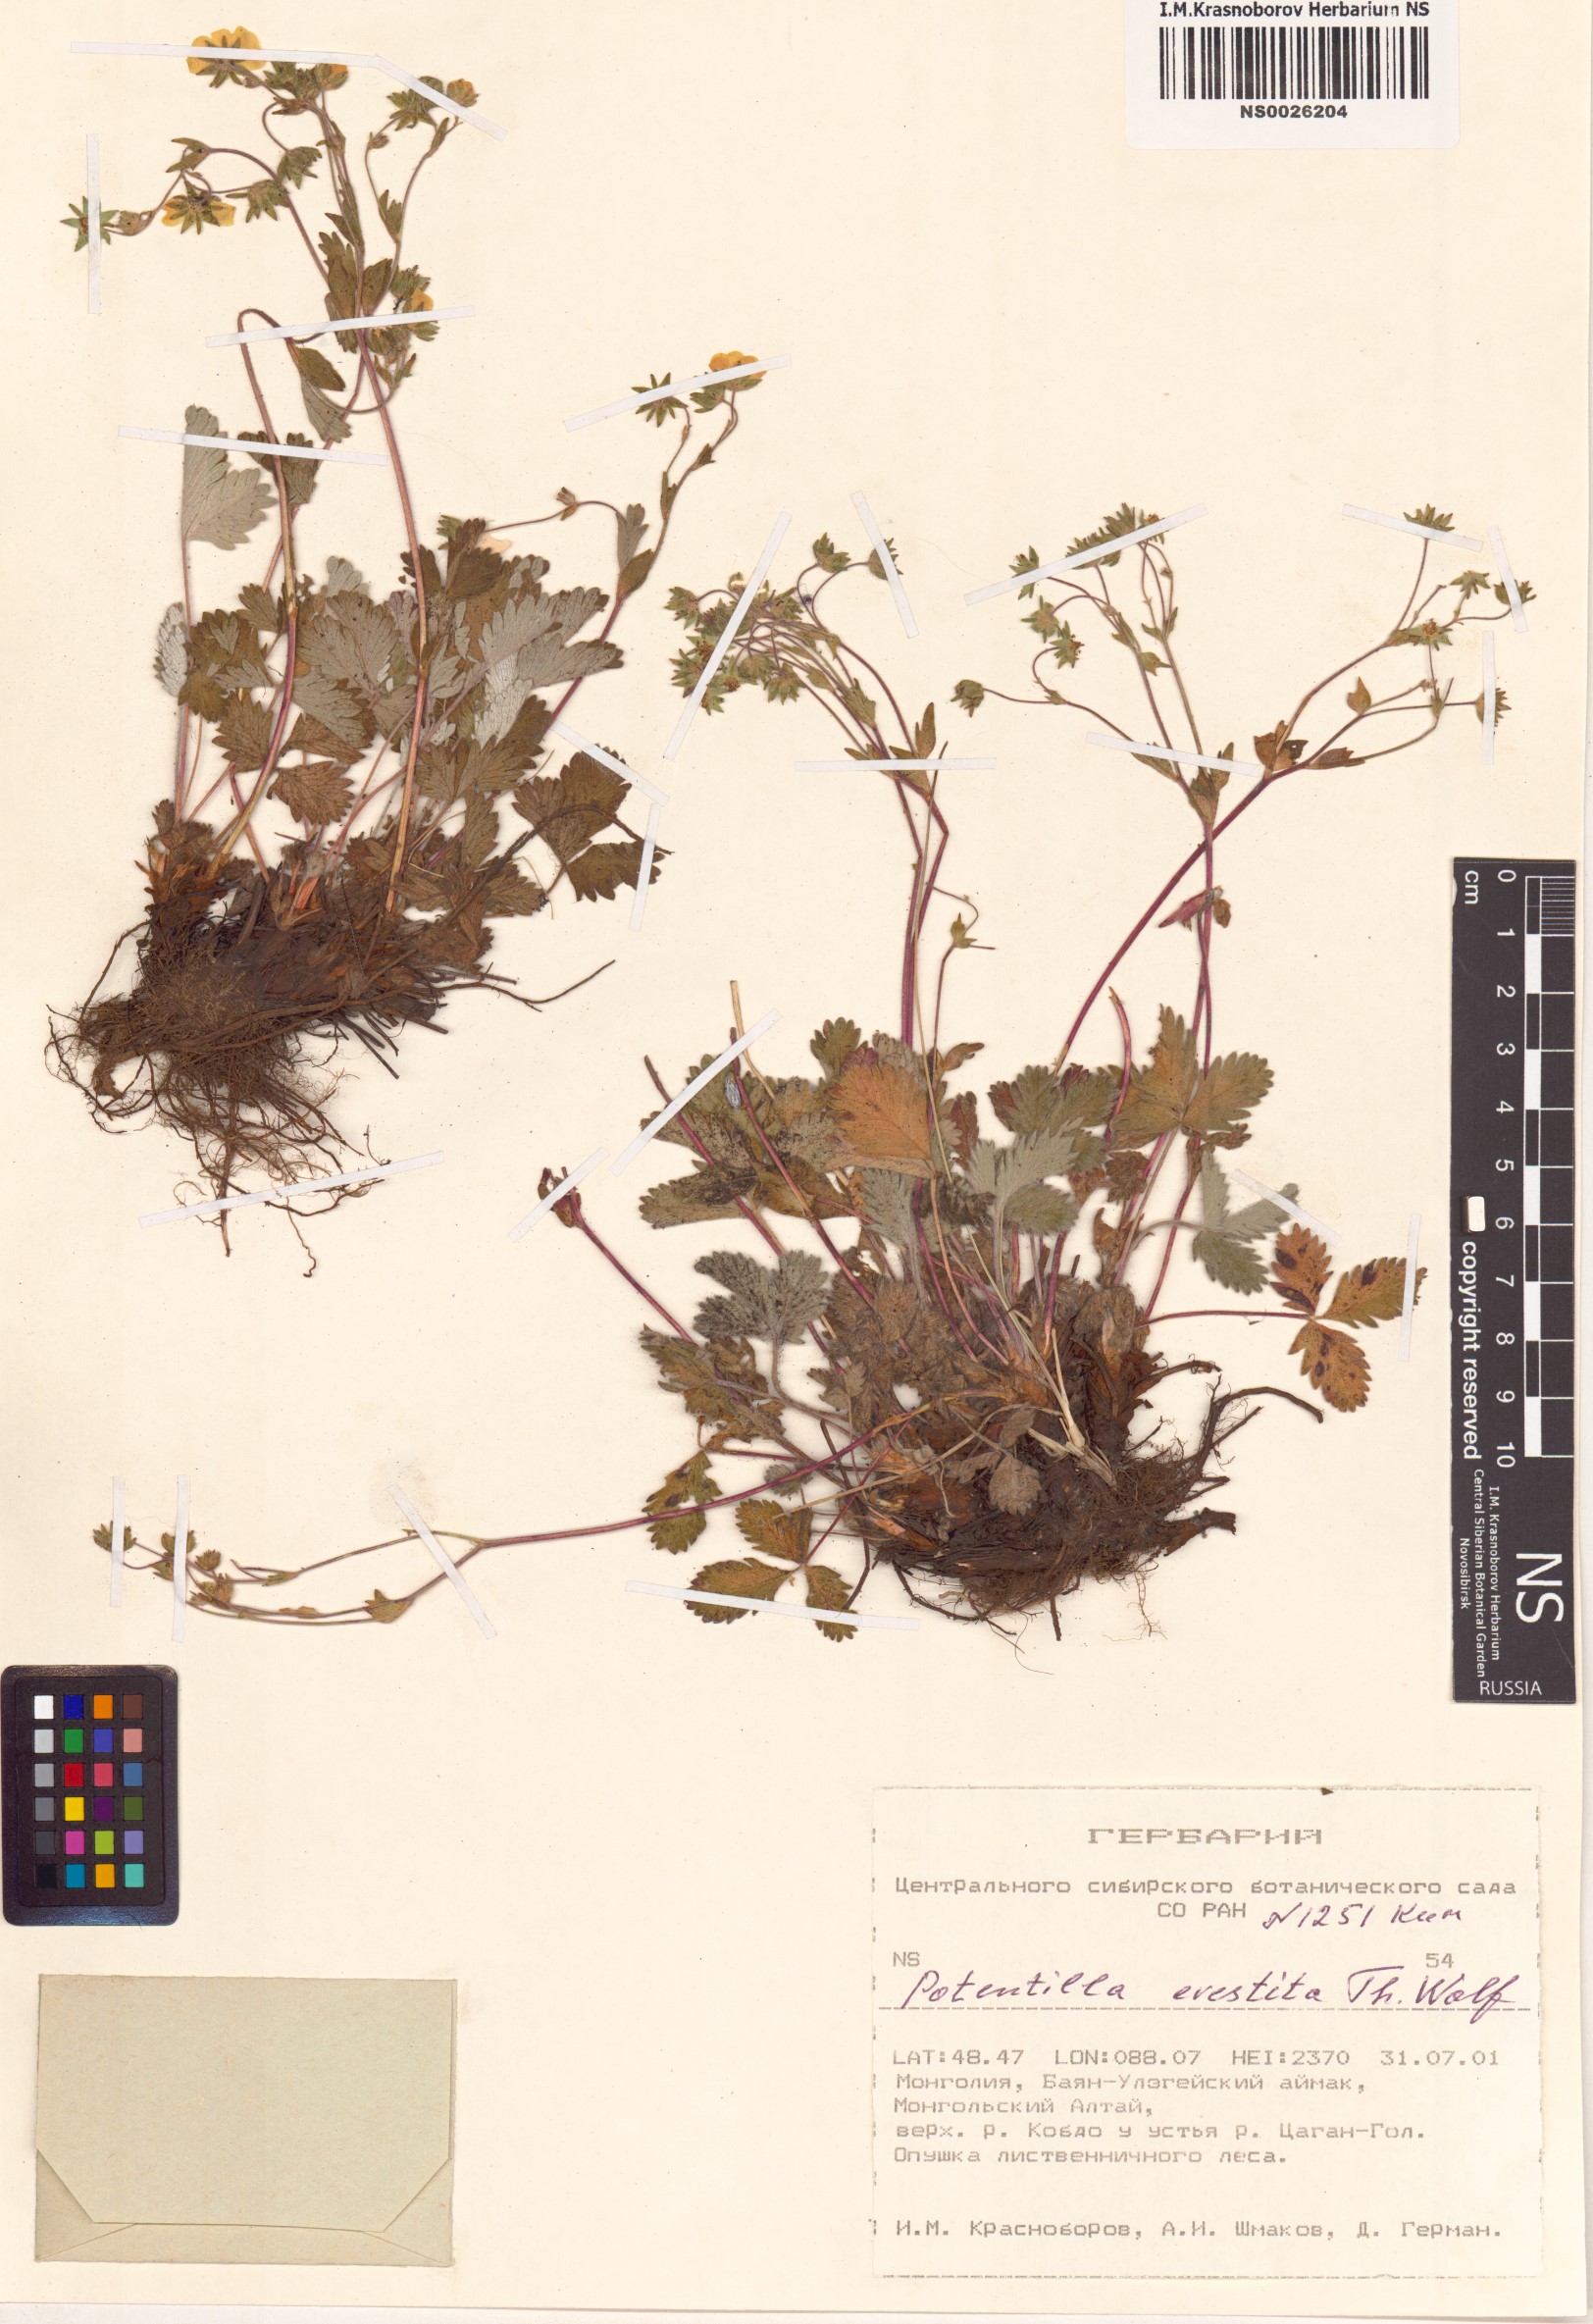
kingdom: Plantae
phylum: Tracheophyta
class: Magnoliopsida
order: Rosales
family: Rosaceae
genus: Potentilla
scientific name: Potentilla evestita
